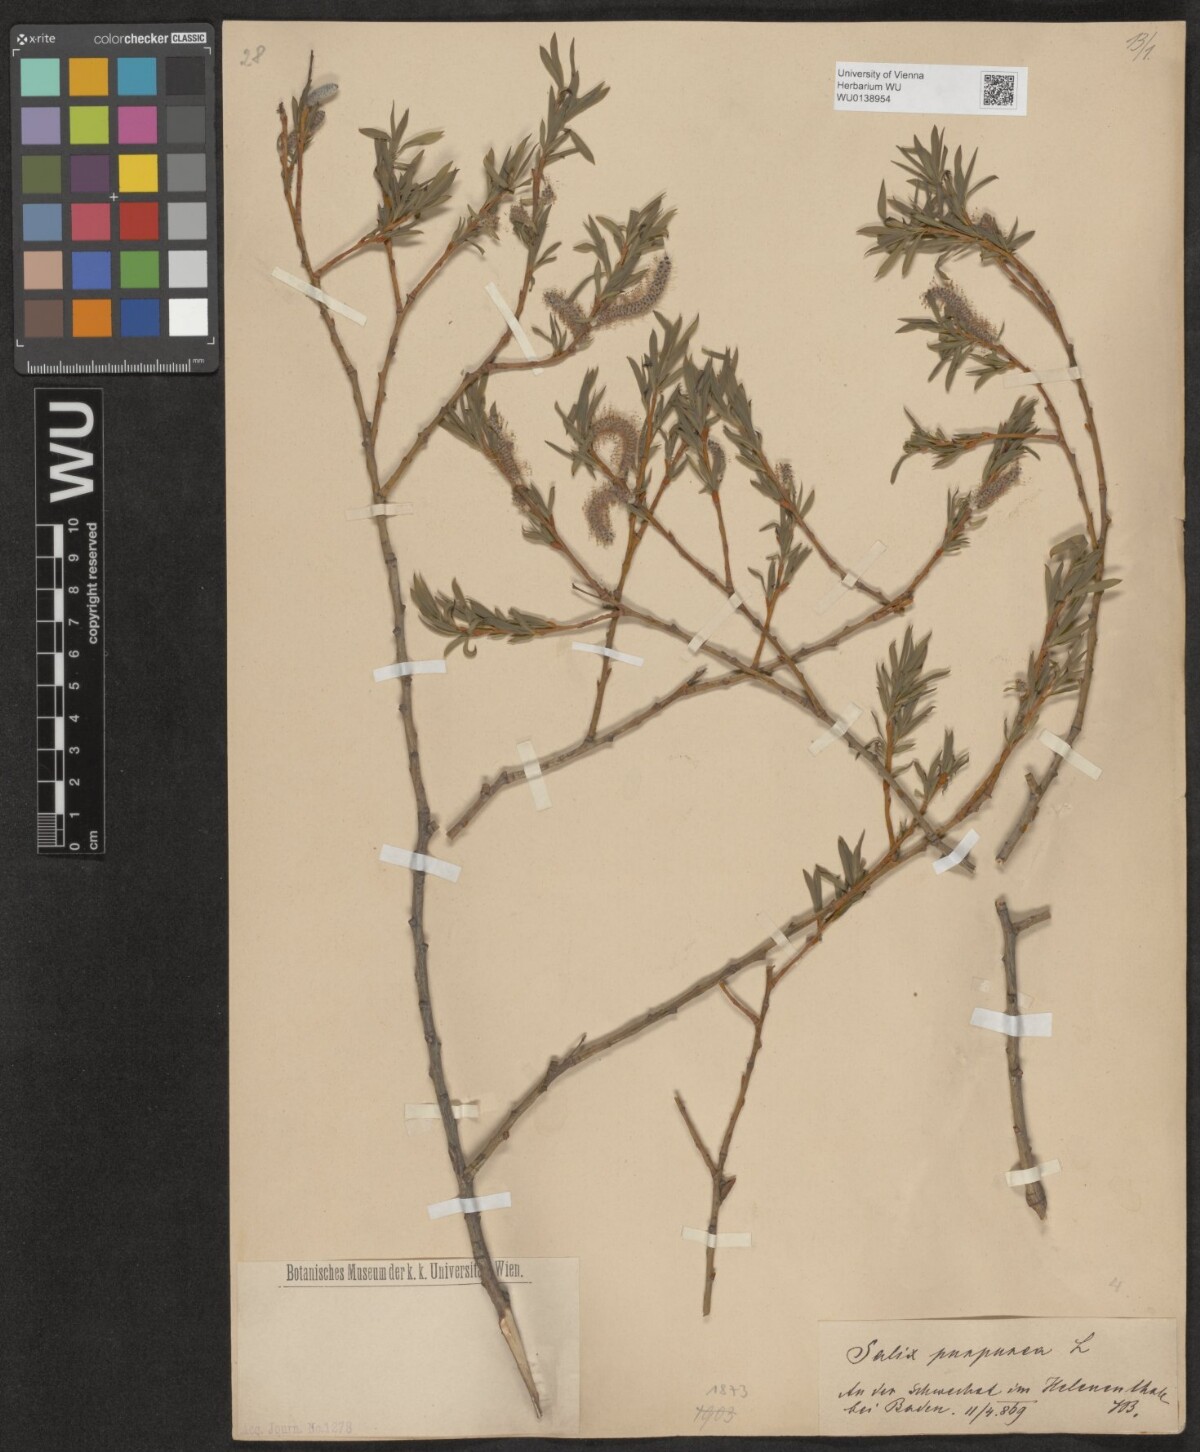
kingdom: Plantae
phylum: Tracheophyta
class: Magnoliopsida
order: Malpighiales
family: Salicaceae
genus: Salix
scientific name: Salix purpurea
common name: Purple willow
